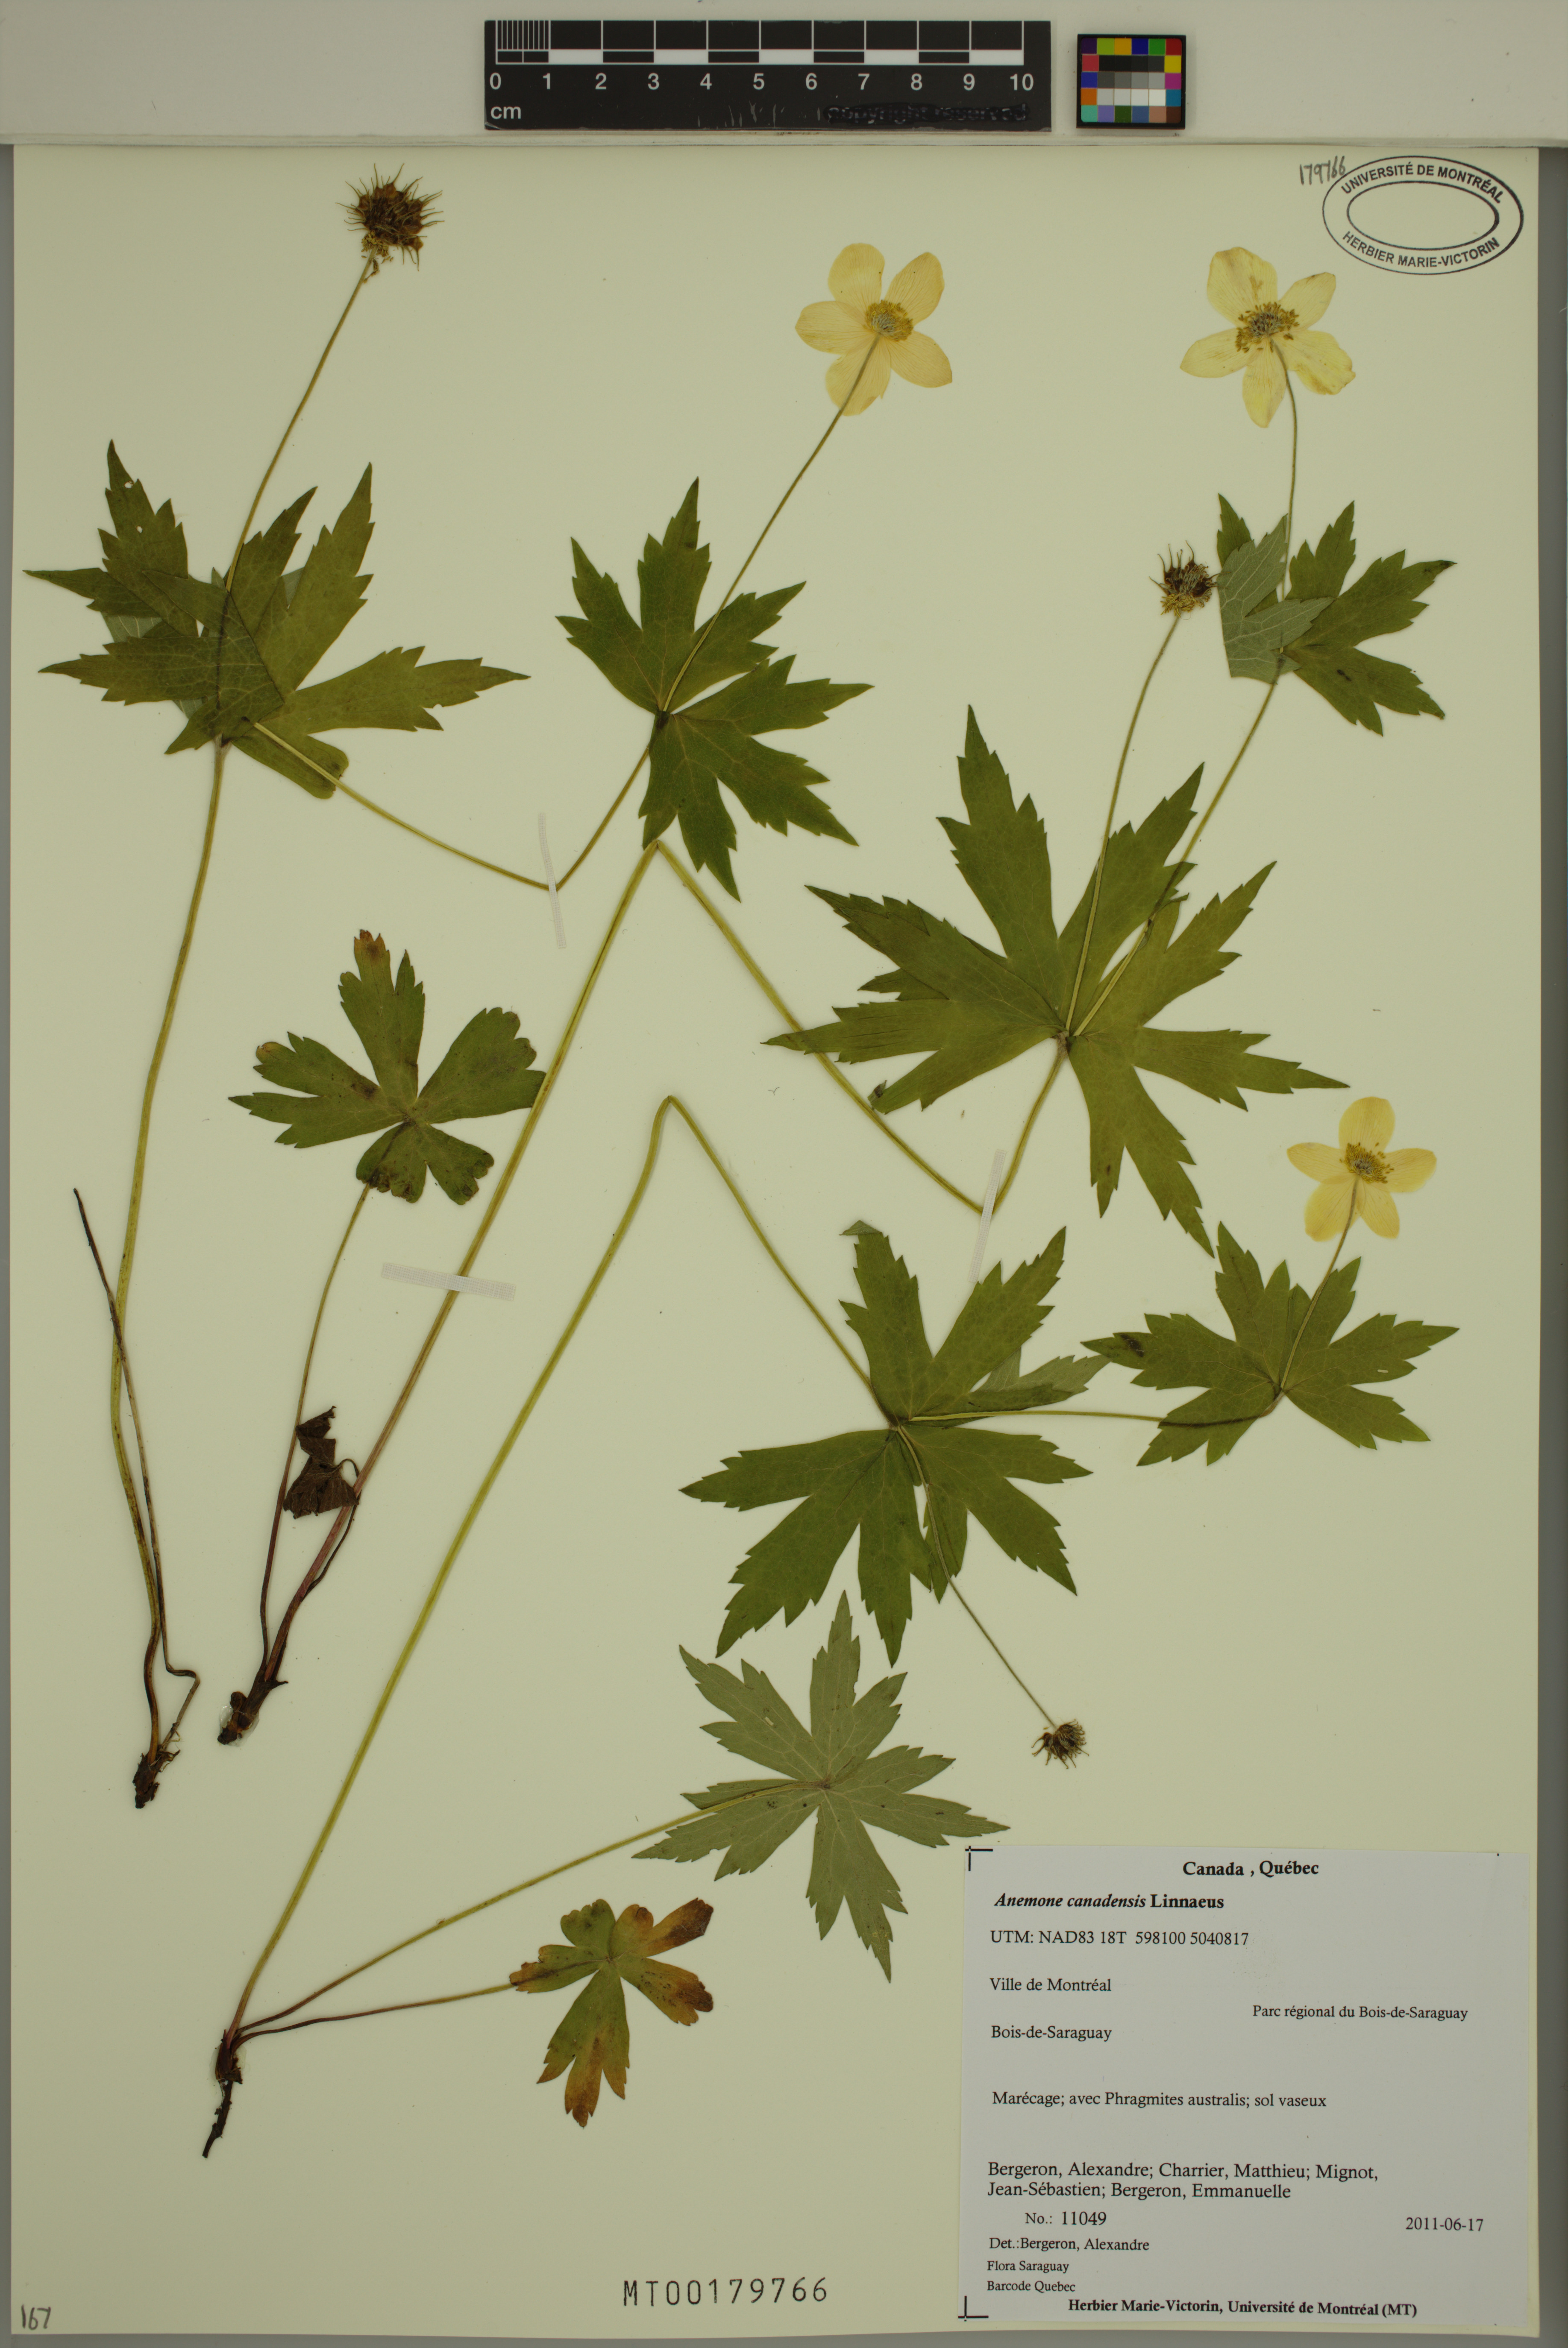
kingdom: Plantae
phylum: Tracheophyta
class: Magnoliopsida
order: Ranunculales
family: Ranunculaceae
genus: Anemonastrum
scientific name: Anemonastrum canadense
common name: Canada anemone
